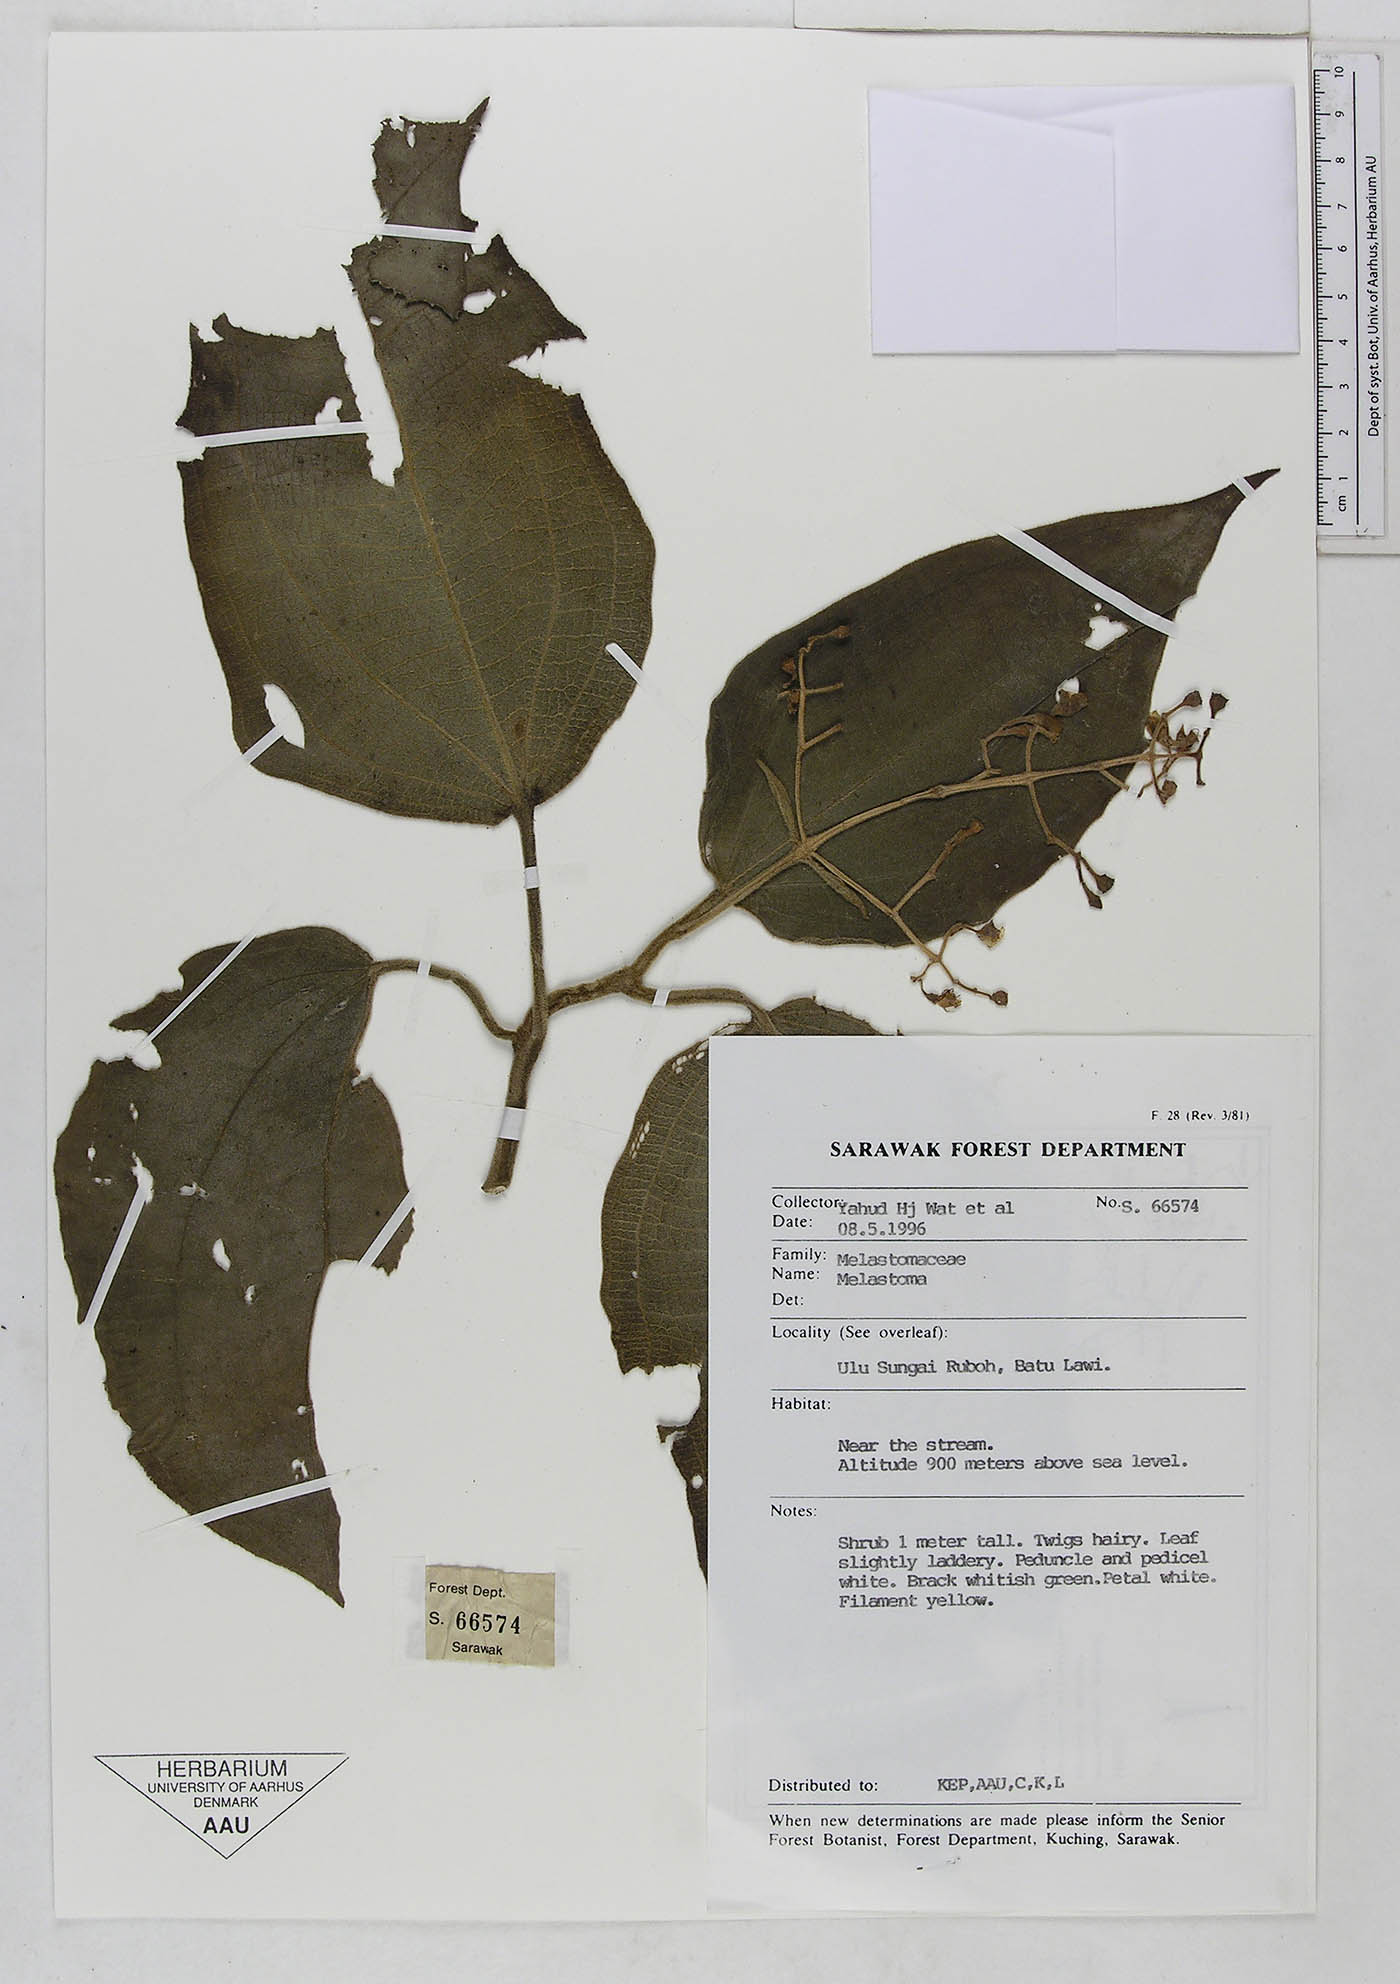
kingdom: Plantae
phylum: Tracheophyta
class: Magnoliopsida
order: Myrtales
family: Melastomataceae
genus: Melastoma
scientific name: Melastoma
